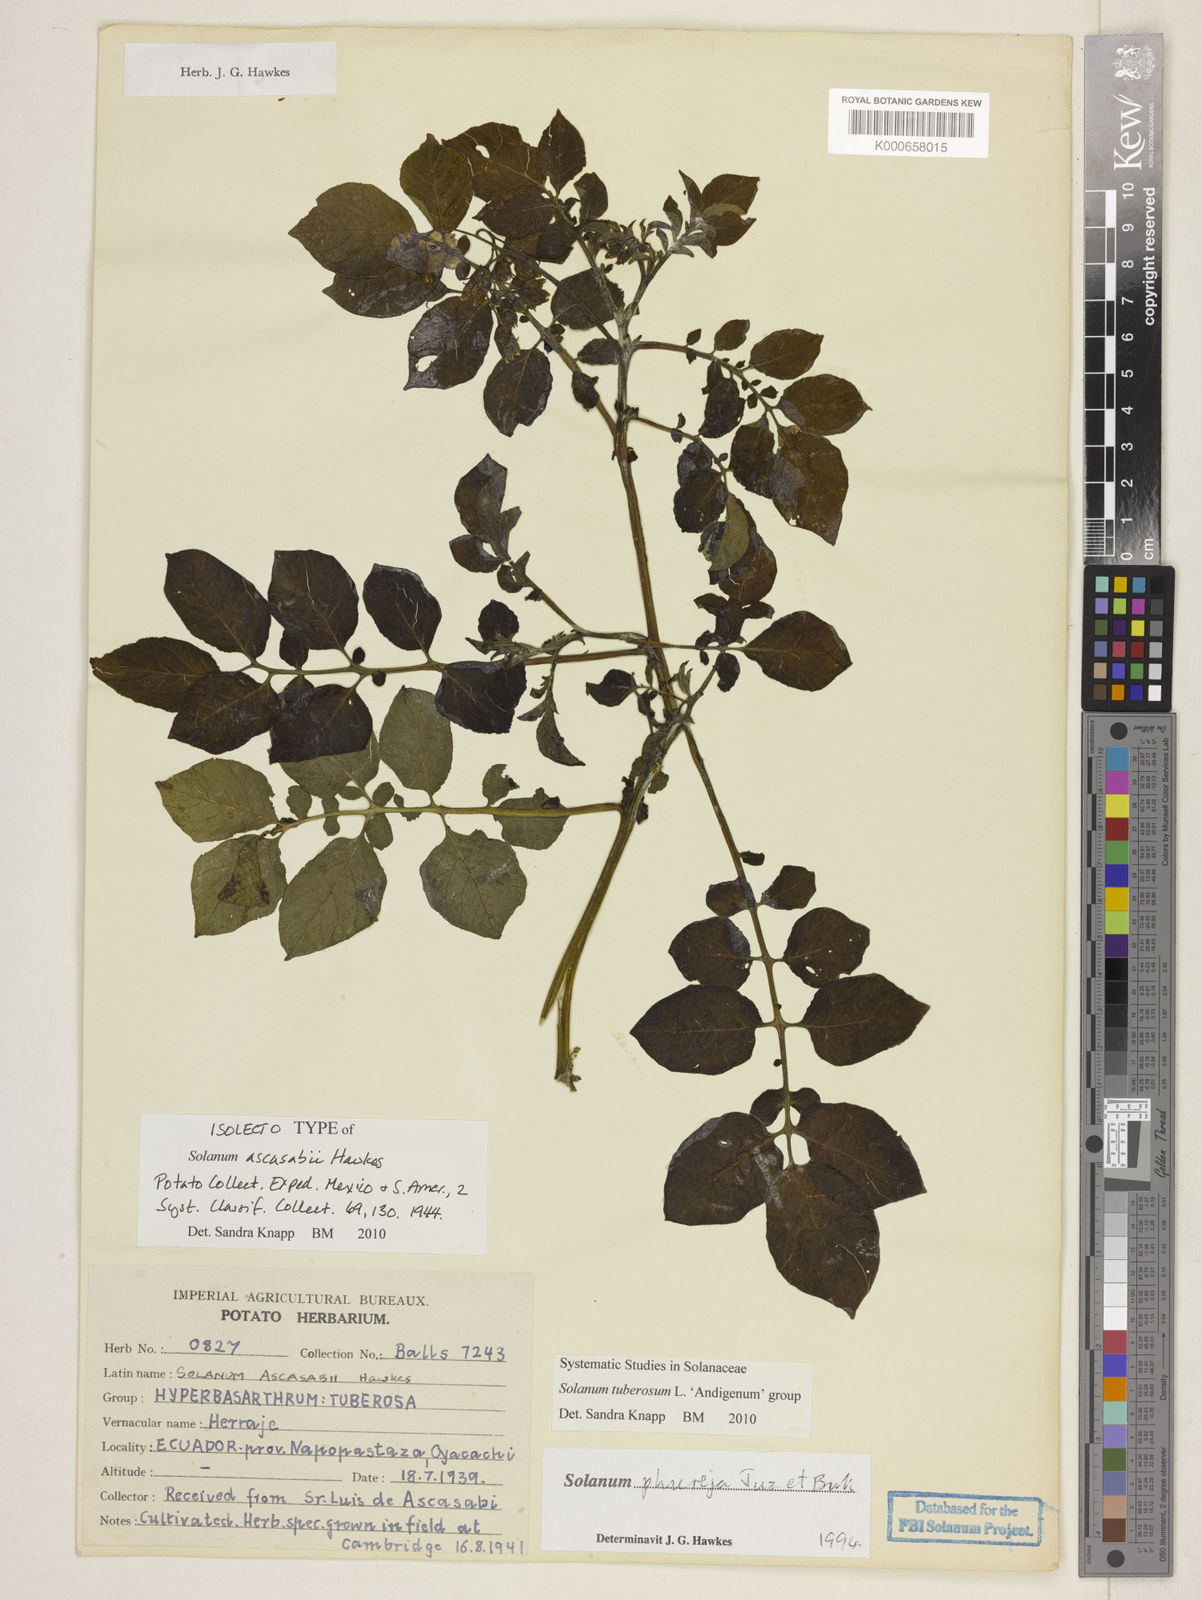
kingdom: Plantae
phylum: Tracheophyta
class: Magnoliopsida
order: Solanales
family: Solanaceae
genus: Solanum
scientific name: Solanum tuberosum
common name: Potato
